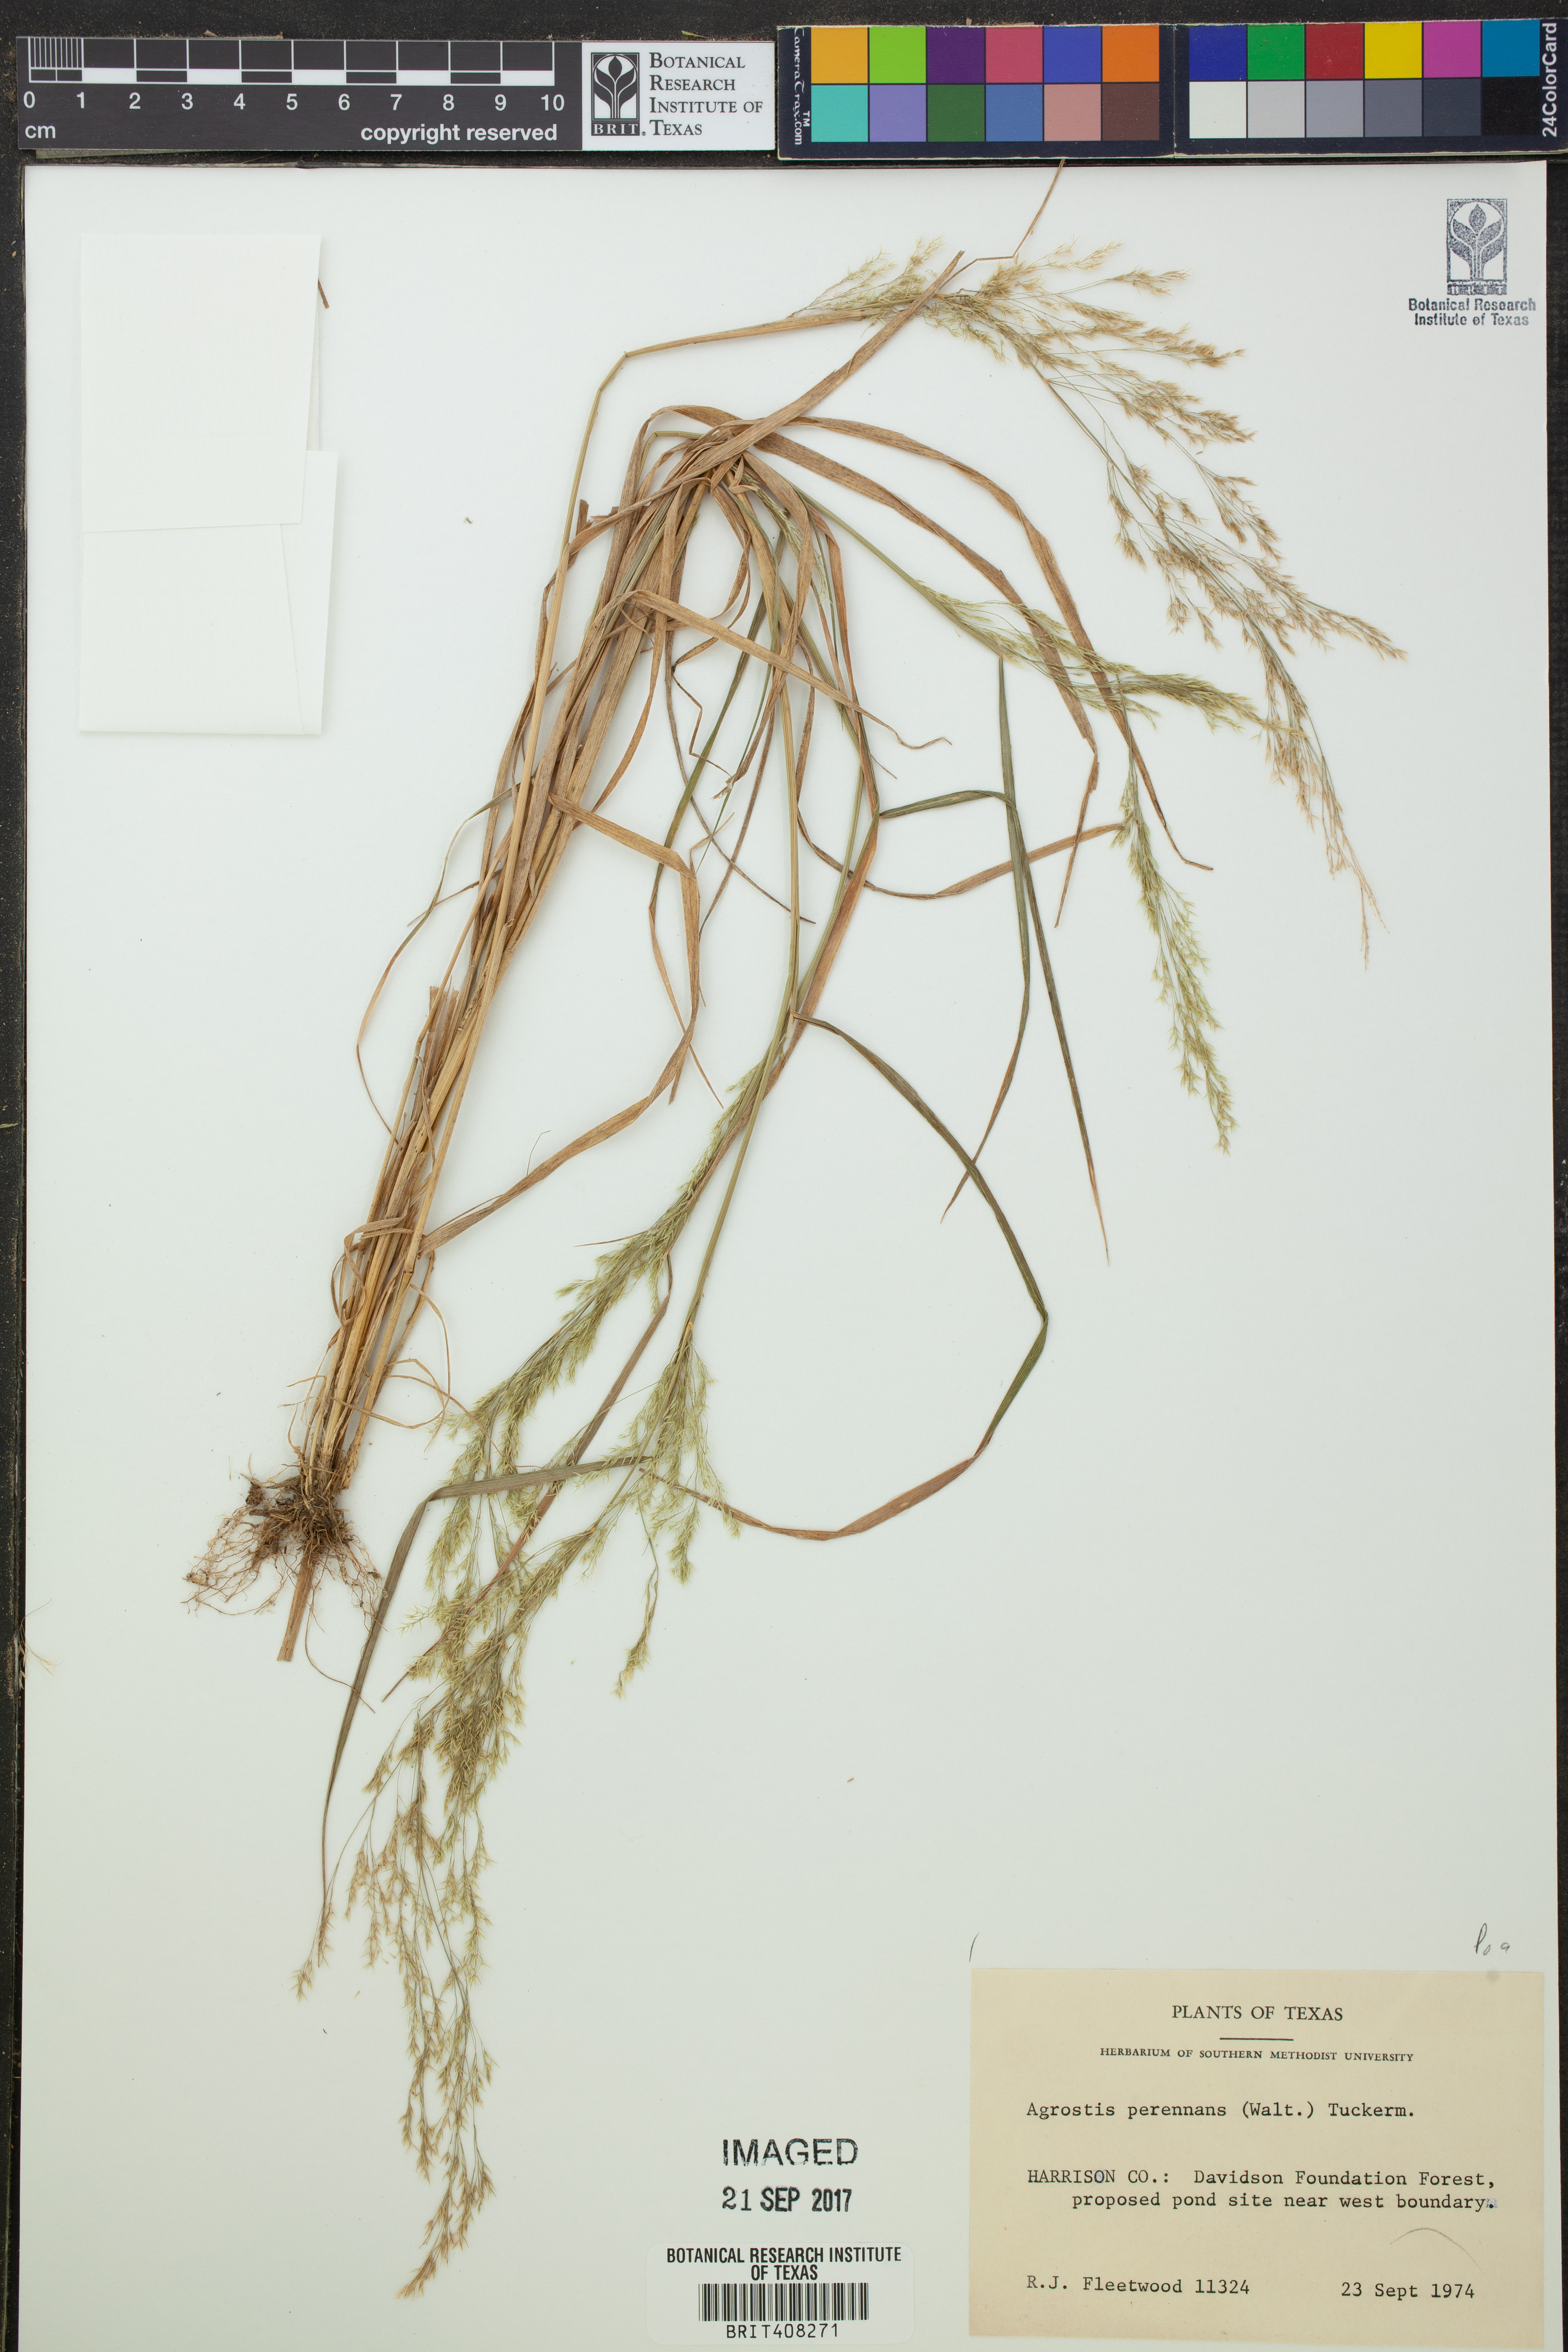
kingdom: Plantae
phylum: Tracheophyta
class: Liliopsida
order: Poales
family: Poaceae
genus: Agrostis
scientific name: Agrostis perennans
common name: Autumn bent
